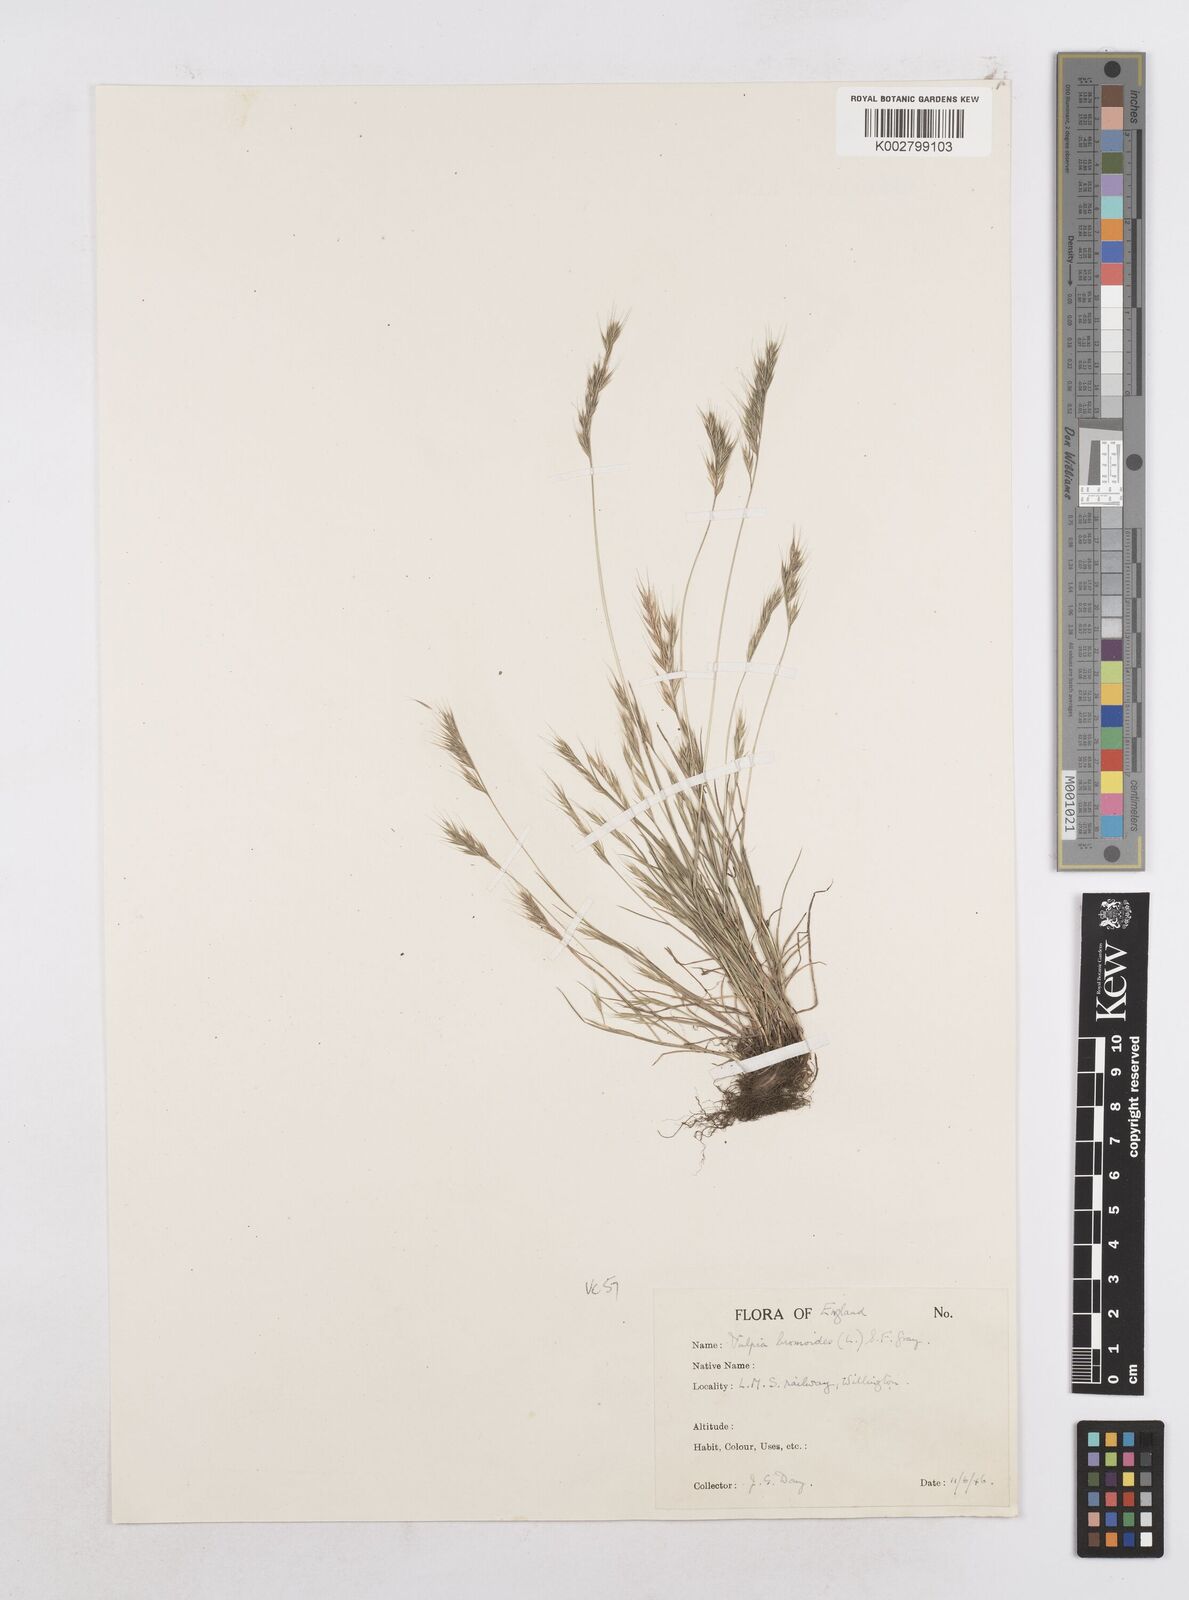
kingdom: Plantae
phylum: Tracheophyta
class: Liliopsida
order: Poales
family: Poaceae
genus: Festuca
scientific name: Festuca bromoides
